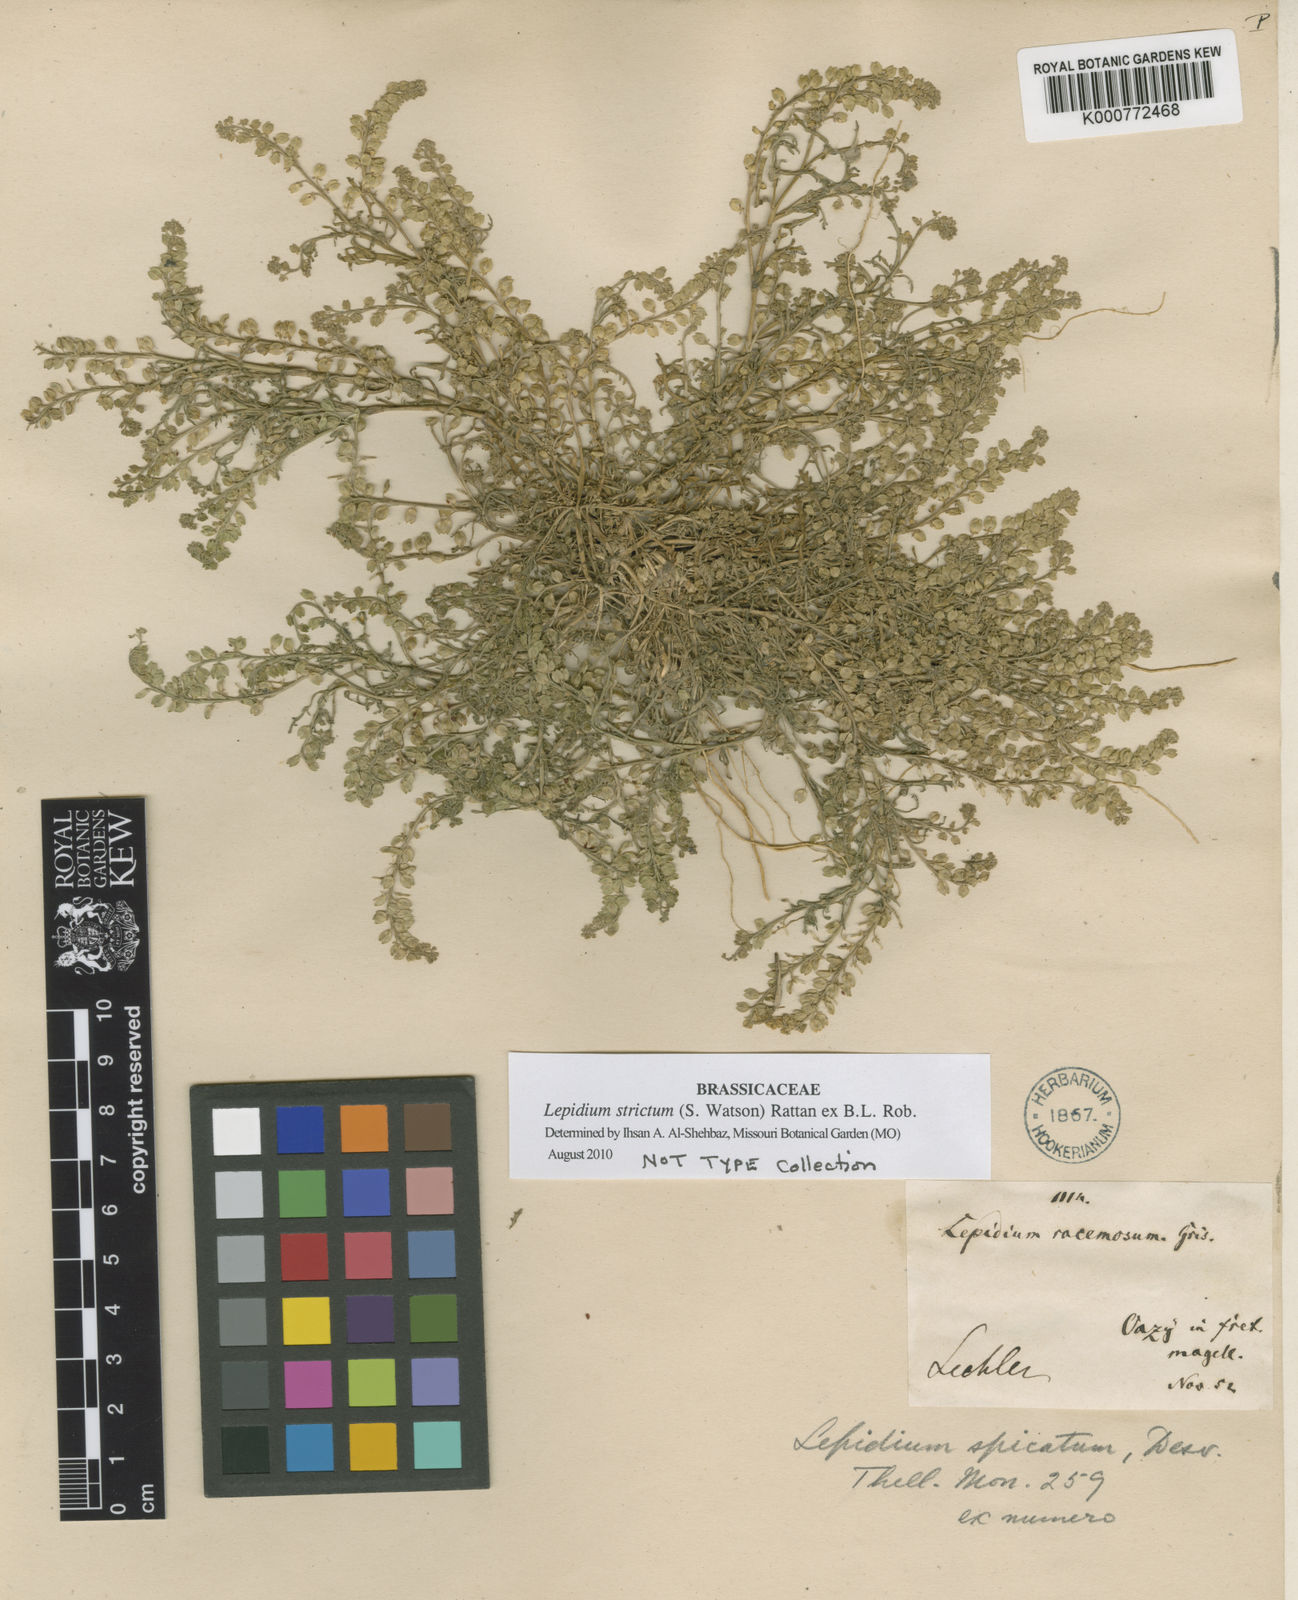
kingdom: Plantae
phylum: Tracheophyta
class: Magnoliopsida
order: Brassicales
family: Brassicaceae
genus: Lepidium
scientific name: Lepidium strictum
